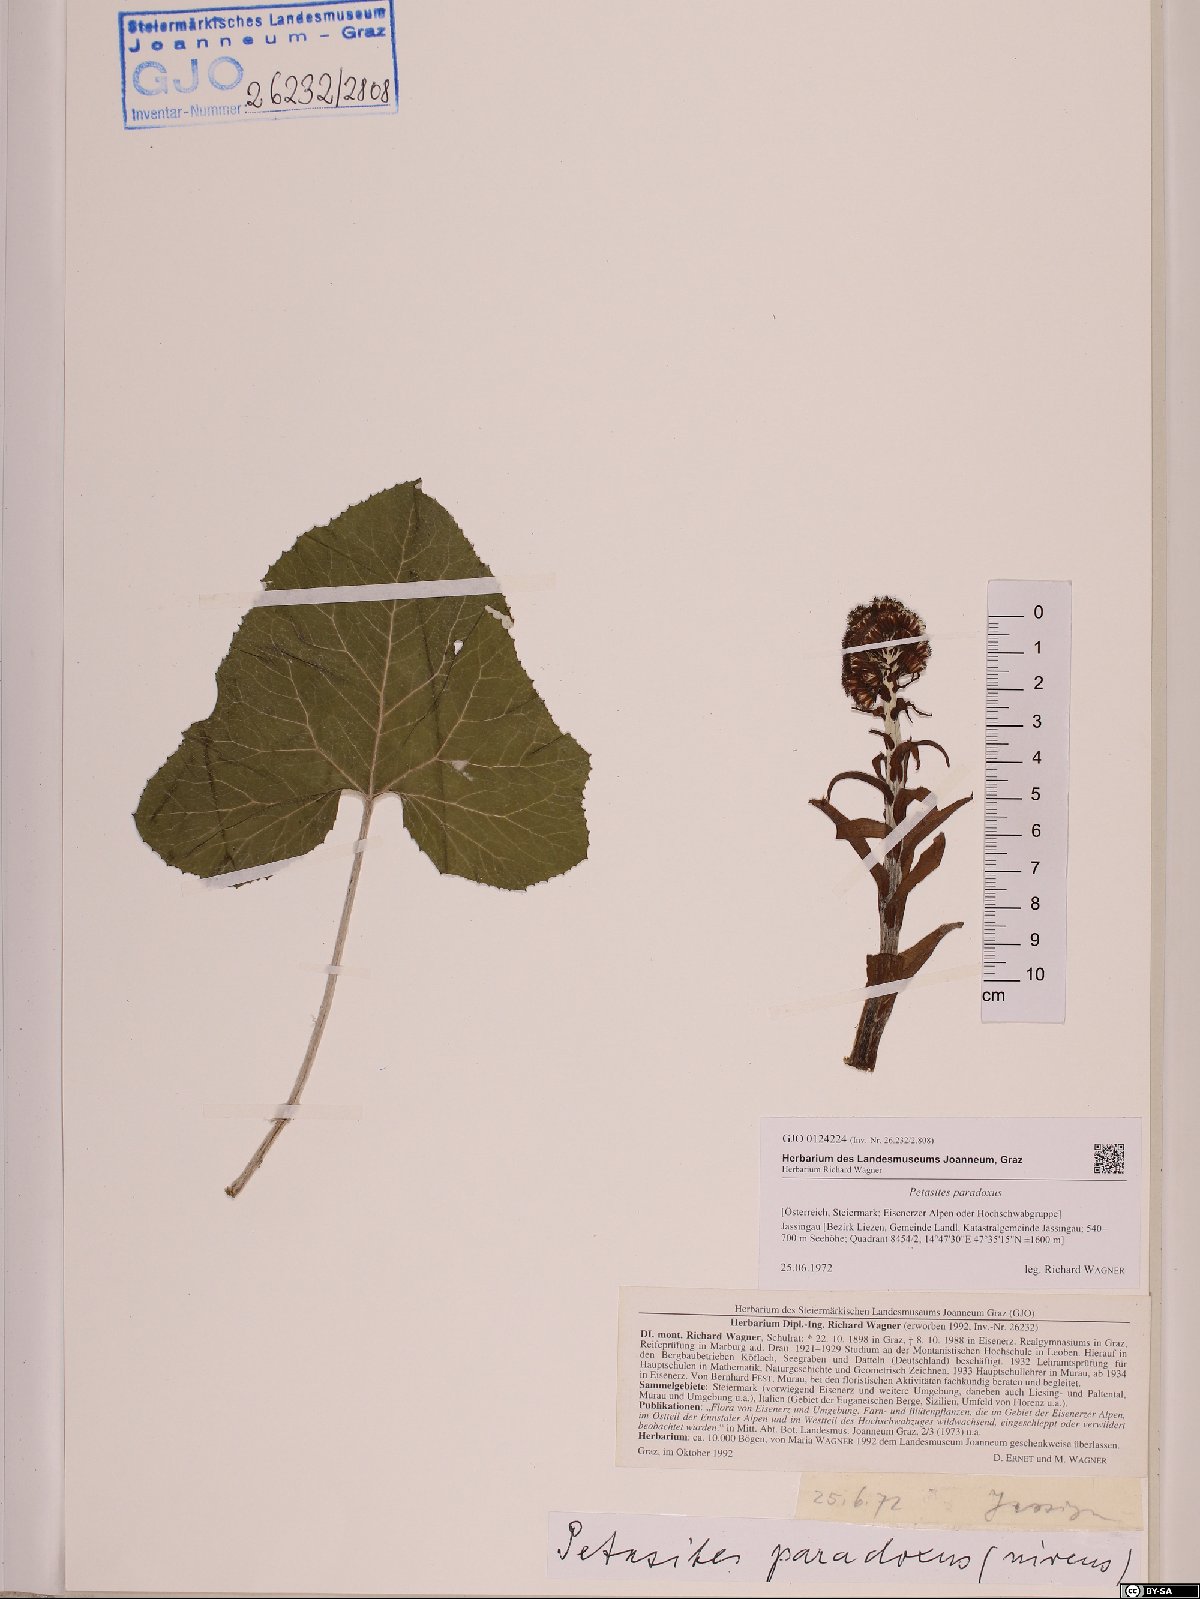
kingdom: Plantae
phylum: Tracheophyta
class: Magnoliopsida
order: Asterales
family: Asteraceae
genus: Petasites
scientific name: Petasites paradoxus
